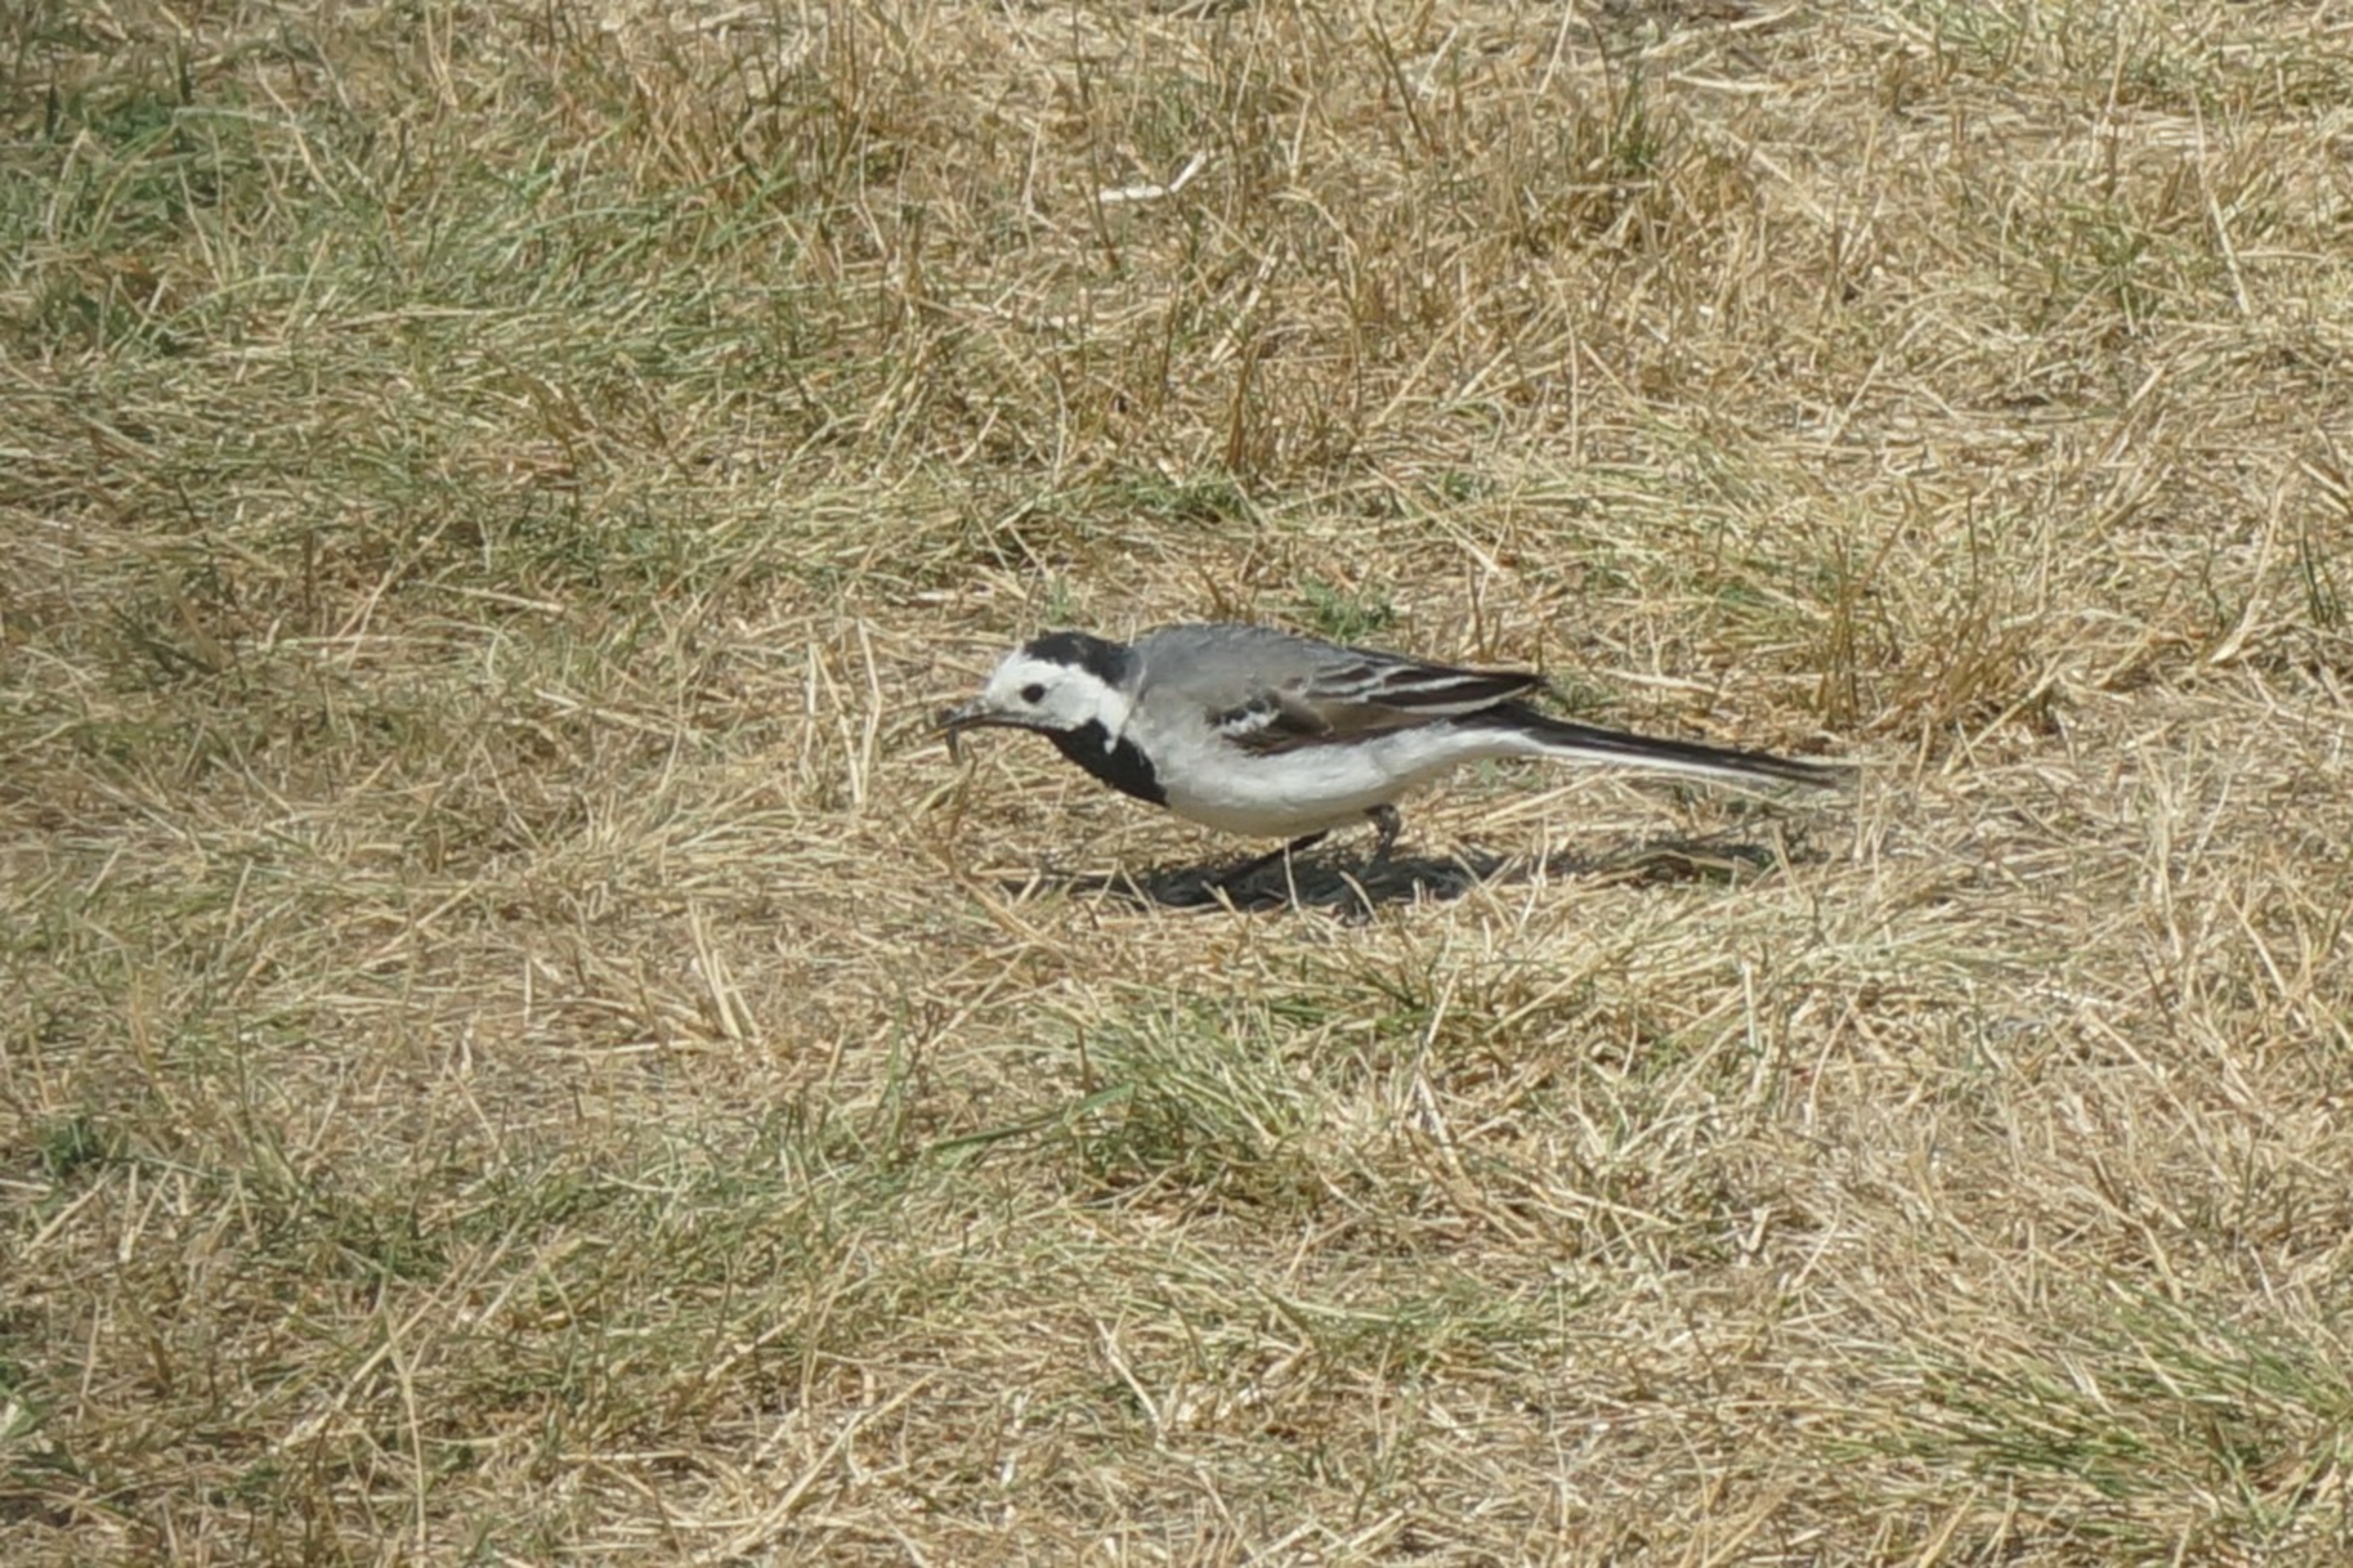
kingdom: Animalia
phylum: Chordata
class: Aves
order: Passeriformes
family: Motacillidae
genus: Motacilla
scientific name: Motacilla alba
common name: Hvid vipstjert
